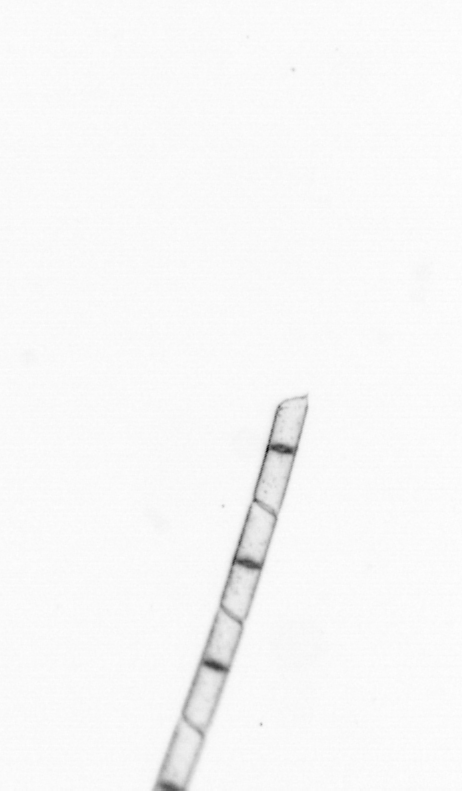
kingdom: Chromista
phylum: Ochrophyta
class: Bacillariophyceae
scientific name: Bacillariophyceae
